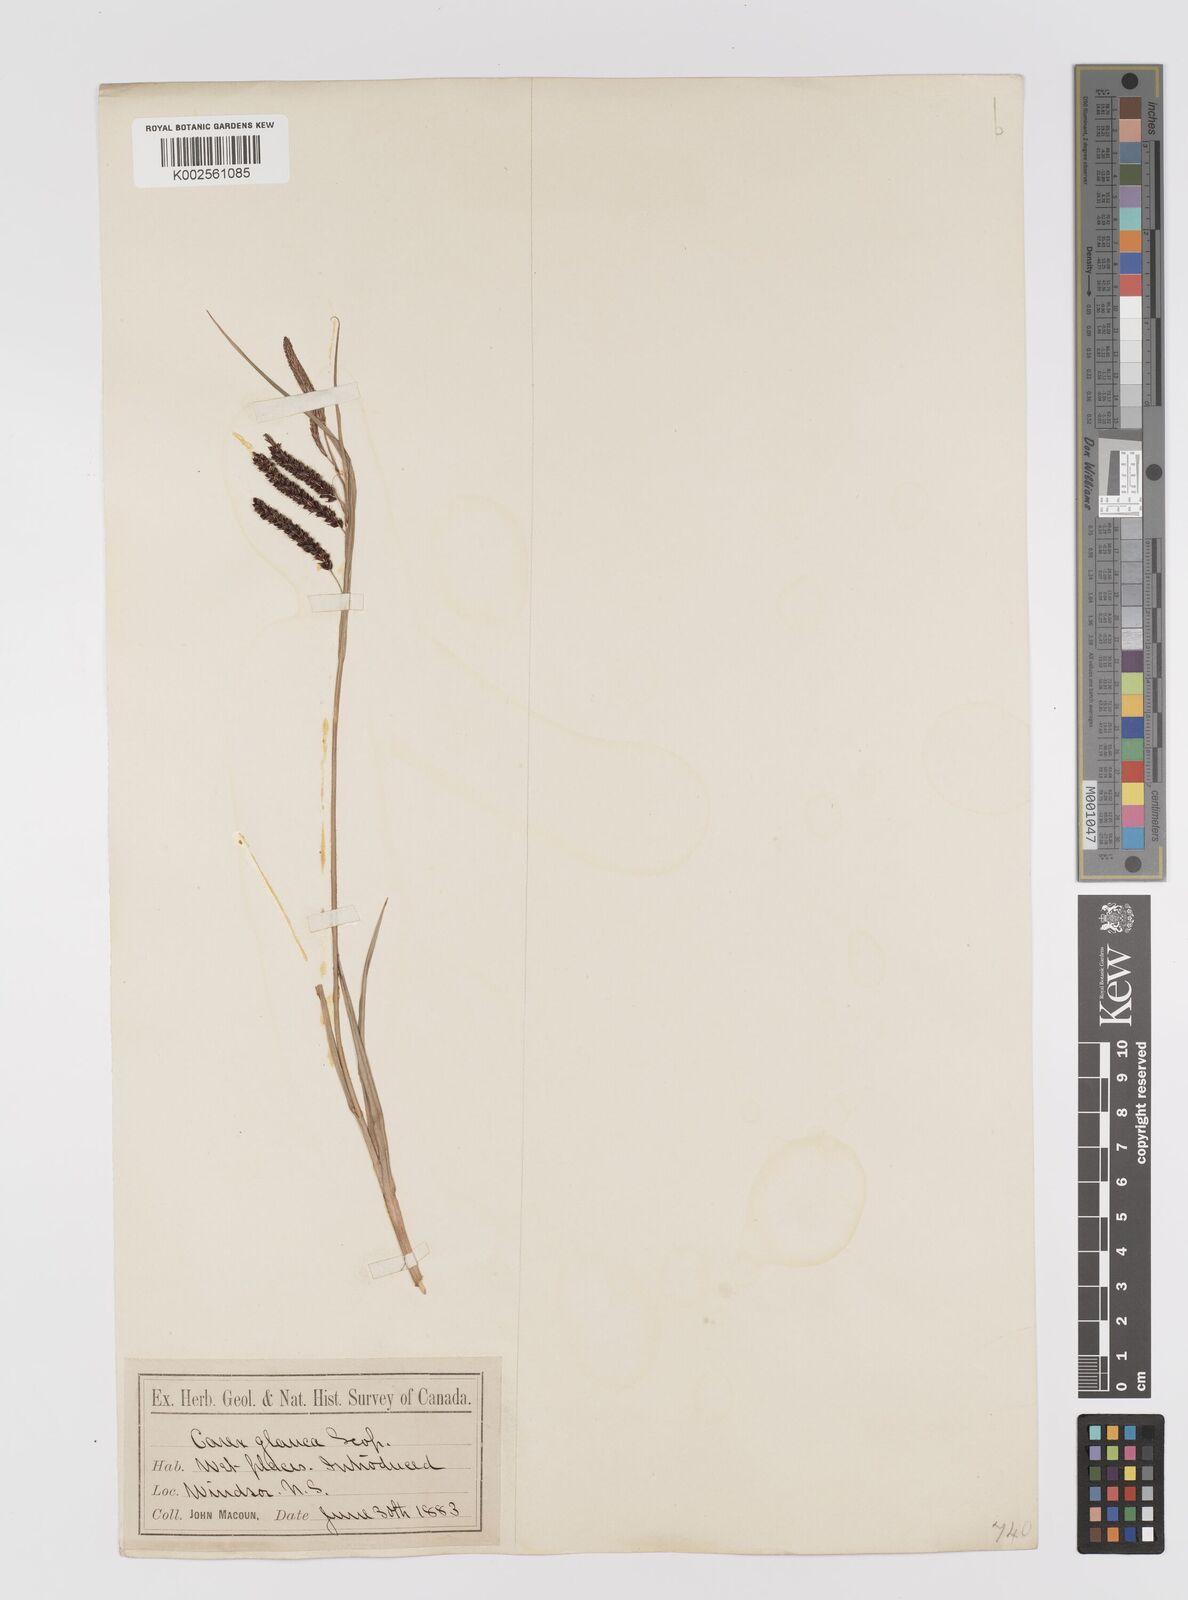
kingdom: Plantae
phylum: Tracheophyta
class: Liliopsida
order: Poales
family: Cyperaceae
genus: Carex
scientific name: Carex flacca
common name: Glaucous sedge
